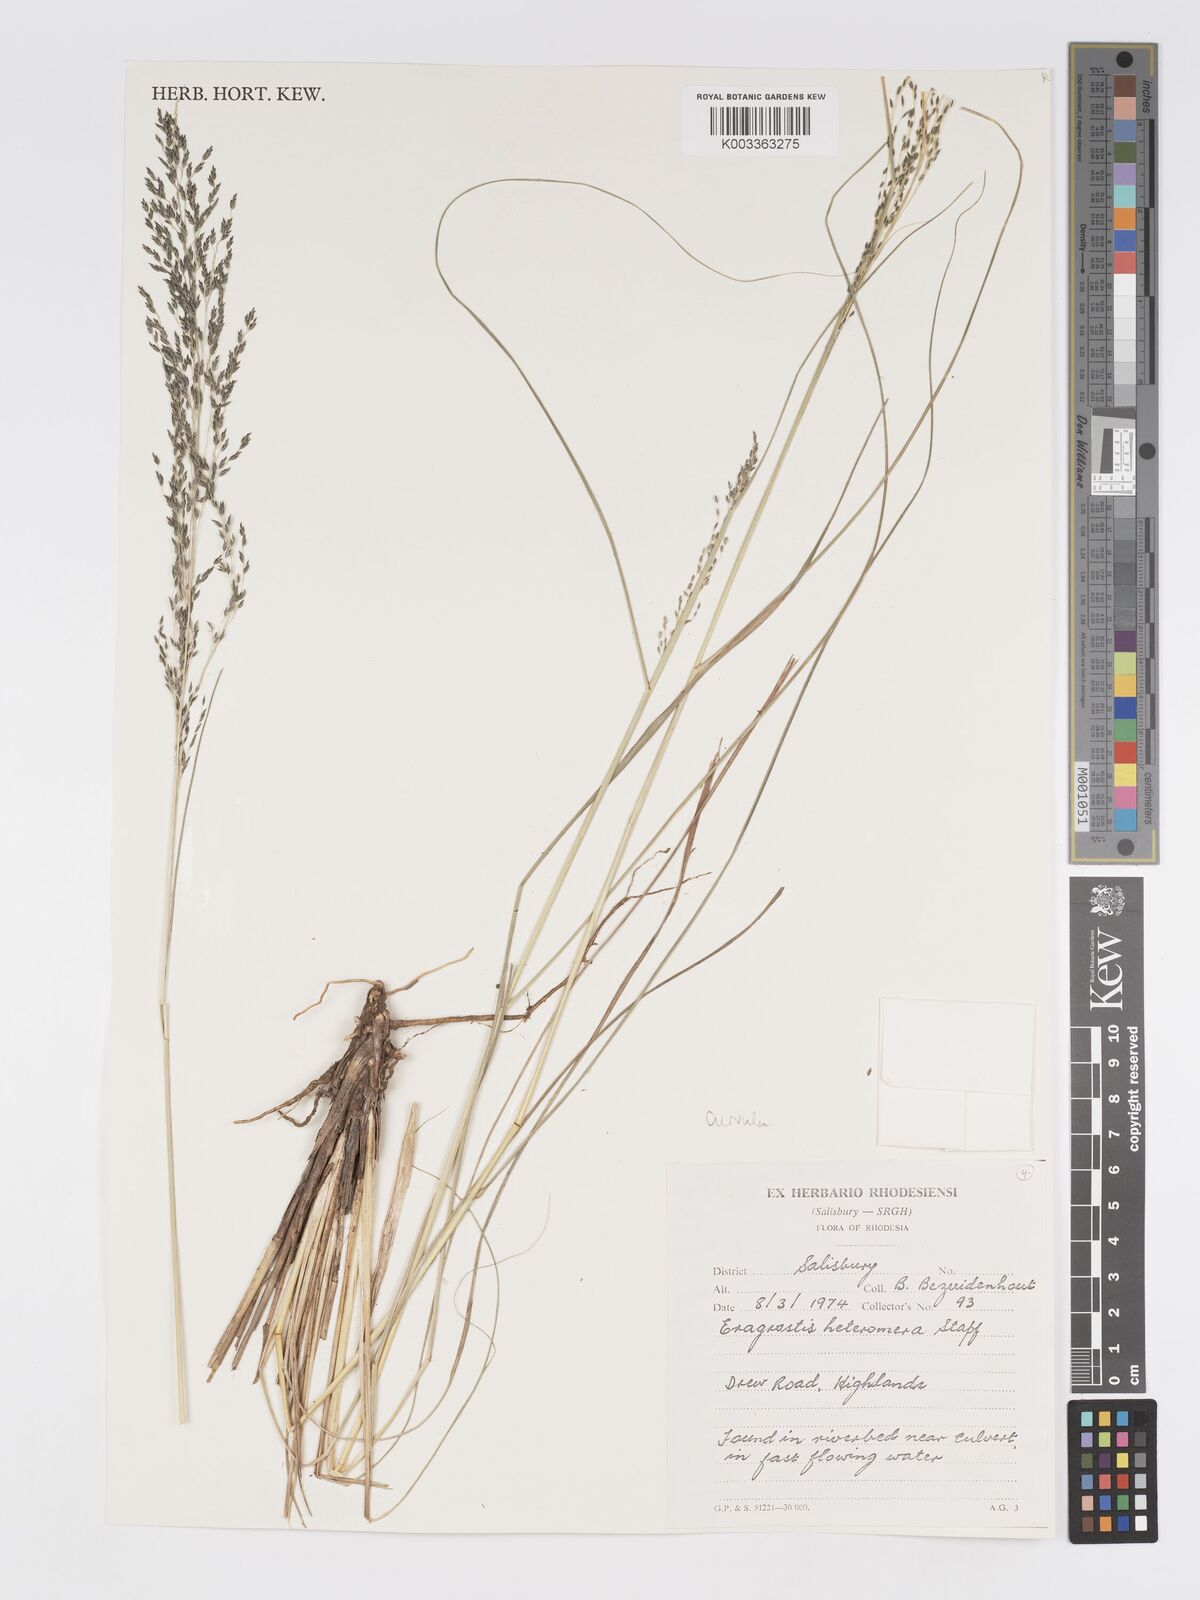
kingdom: Plantae
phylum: Tracheophyta
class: Liliopsida
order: Poales
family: Poaceae
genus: Eragrostis
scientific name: Eragrostis curvula
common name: African love-grass
